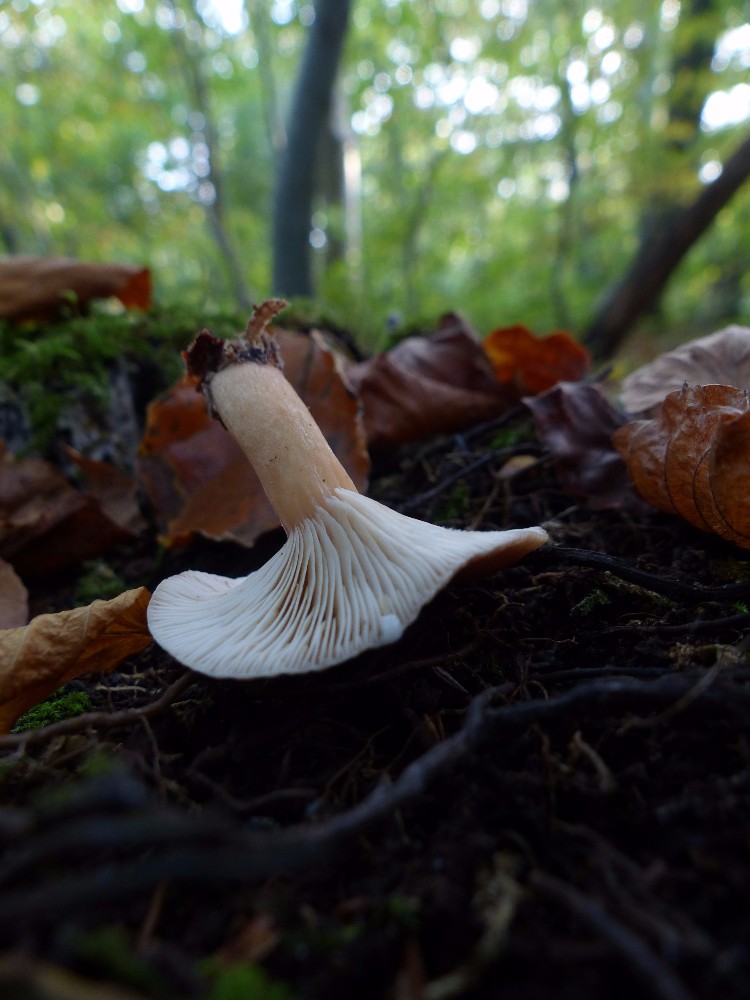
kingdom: Fungi
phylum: Basidiomycota
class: Agaricomycetes
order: Russulales
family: Russulaceae
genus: Lactarius
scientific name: Lactarius subdulcis
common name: sødlig mælkehat
